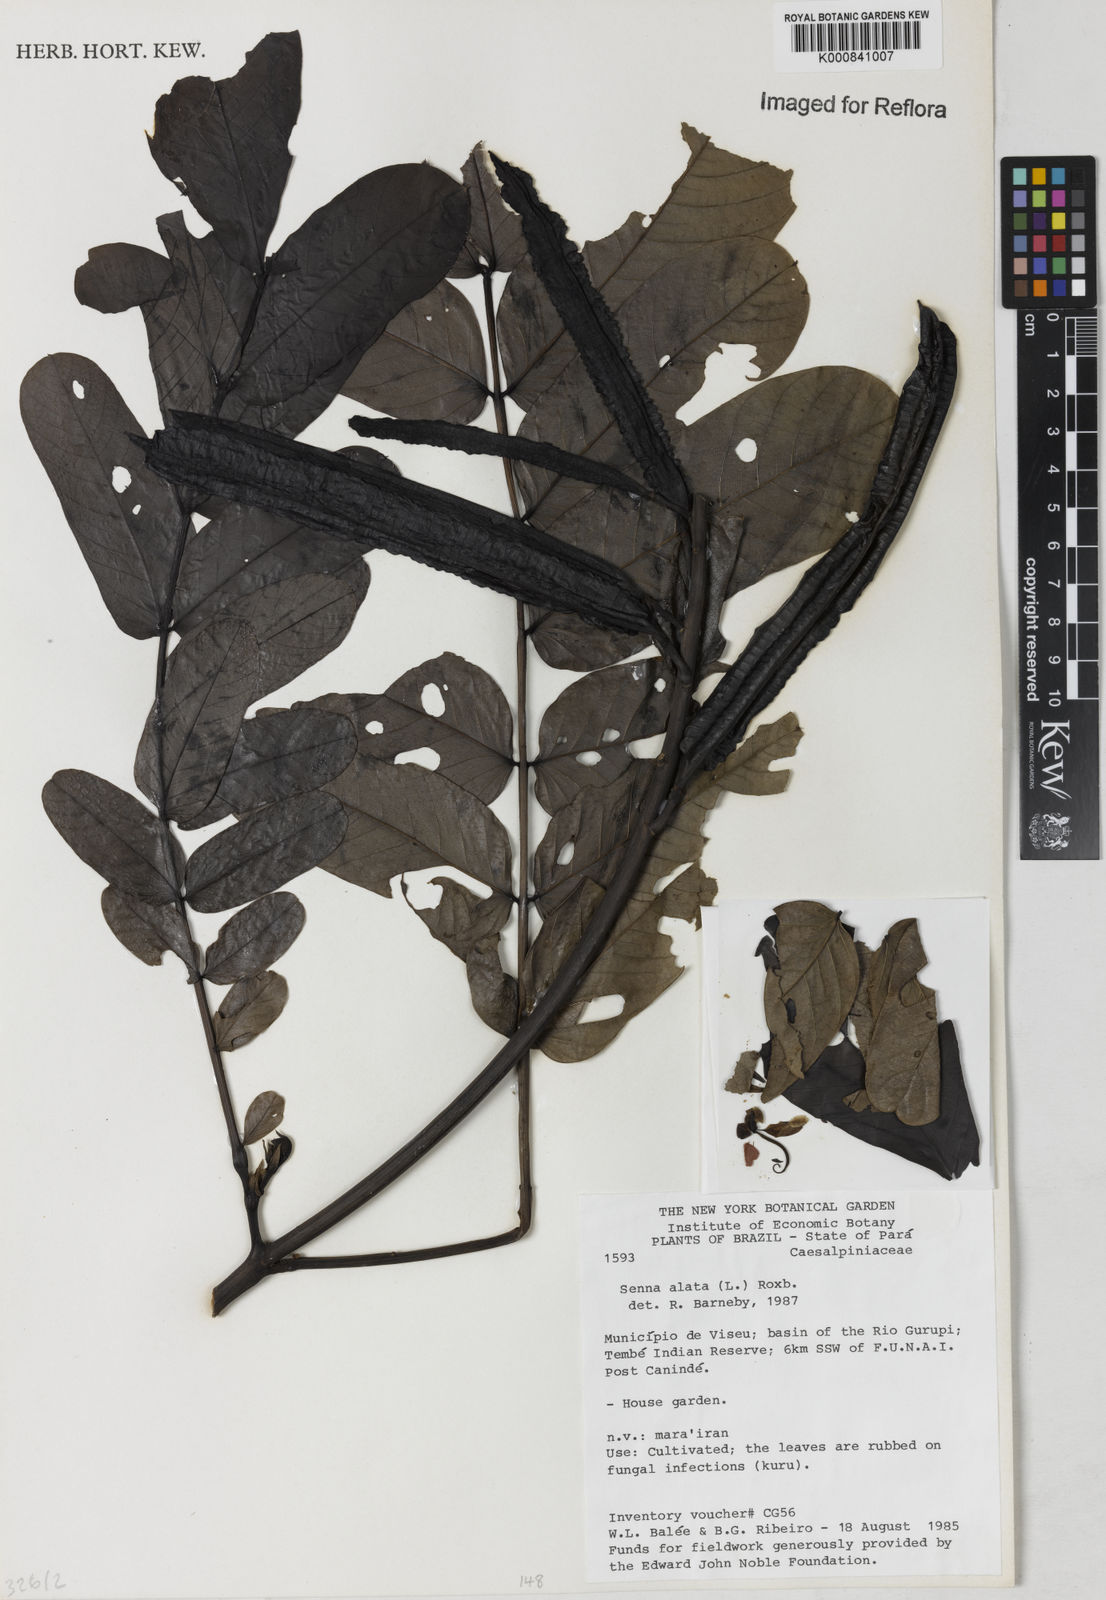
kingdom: Plantae
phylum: Tracheophyta
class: Magnoliopsida
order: Fabales
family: Fabaceae
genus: Senna
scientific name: Senna alata
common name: Emperor's candlesticks
